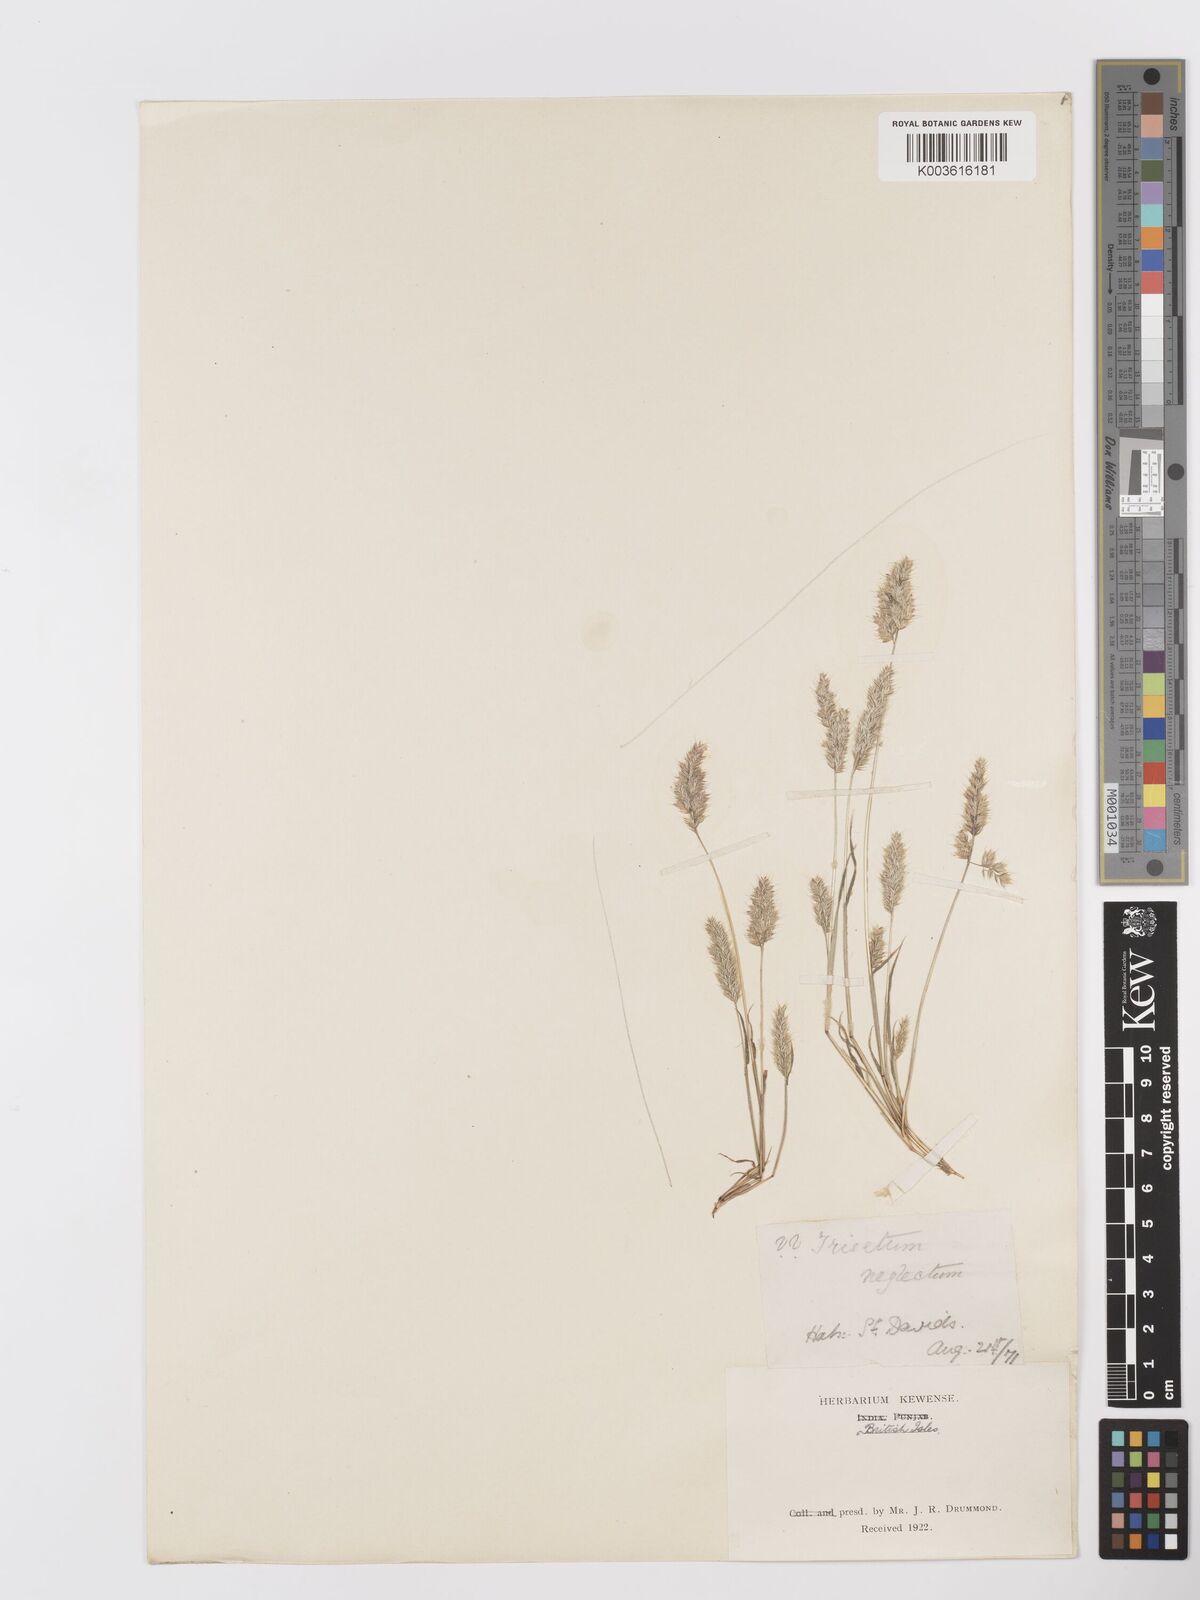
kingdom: Plantae
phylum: Tracheophyta
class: Liliopsida
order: Poales
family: Poaceae
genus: Trisetaria
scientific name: Trisetaria panicea
